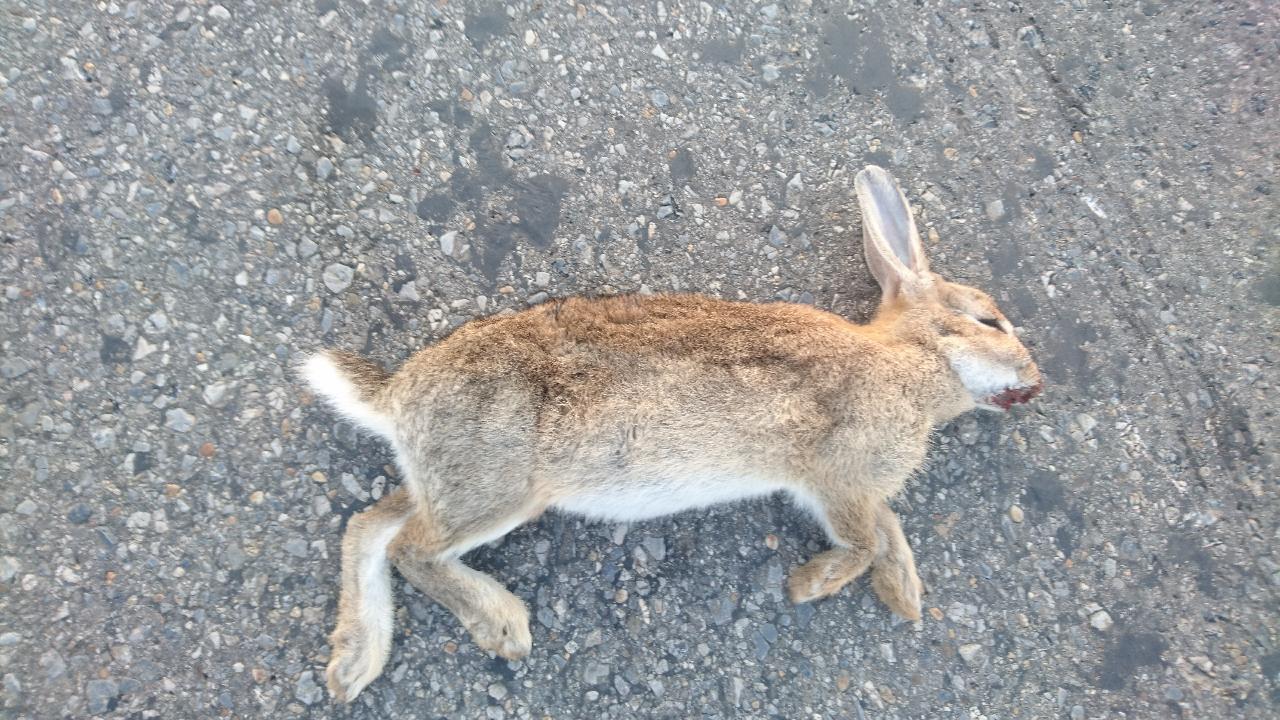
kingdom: Animalia
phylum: Chordata
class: Mammalia
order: Lagomorpha
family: Leporidae
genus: Oryctolagus
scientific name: Oryctolagus cuniculus
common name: European rabbit
